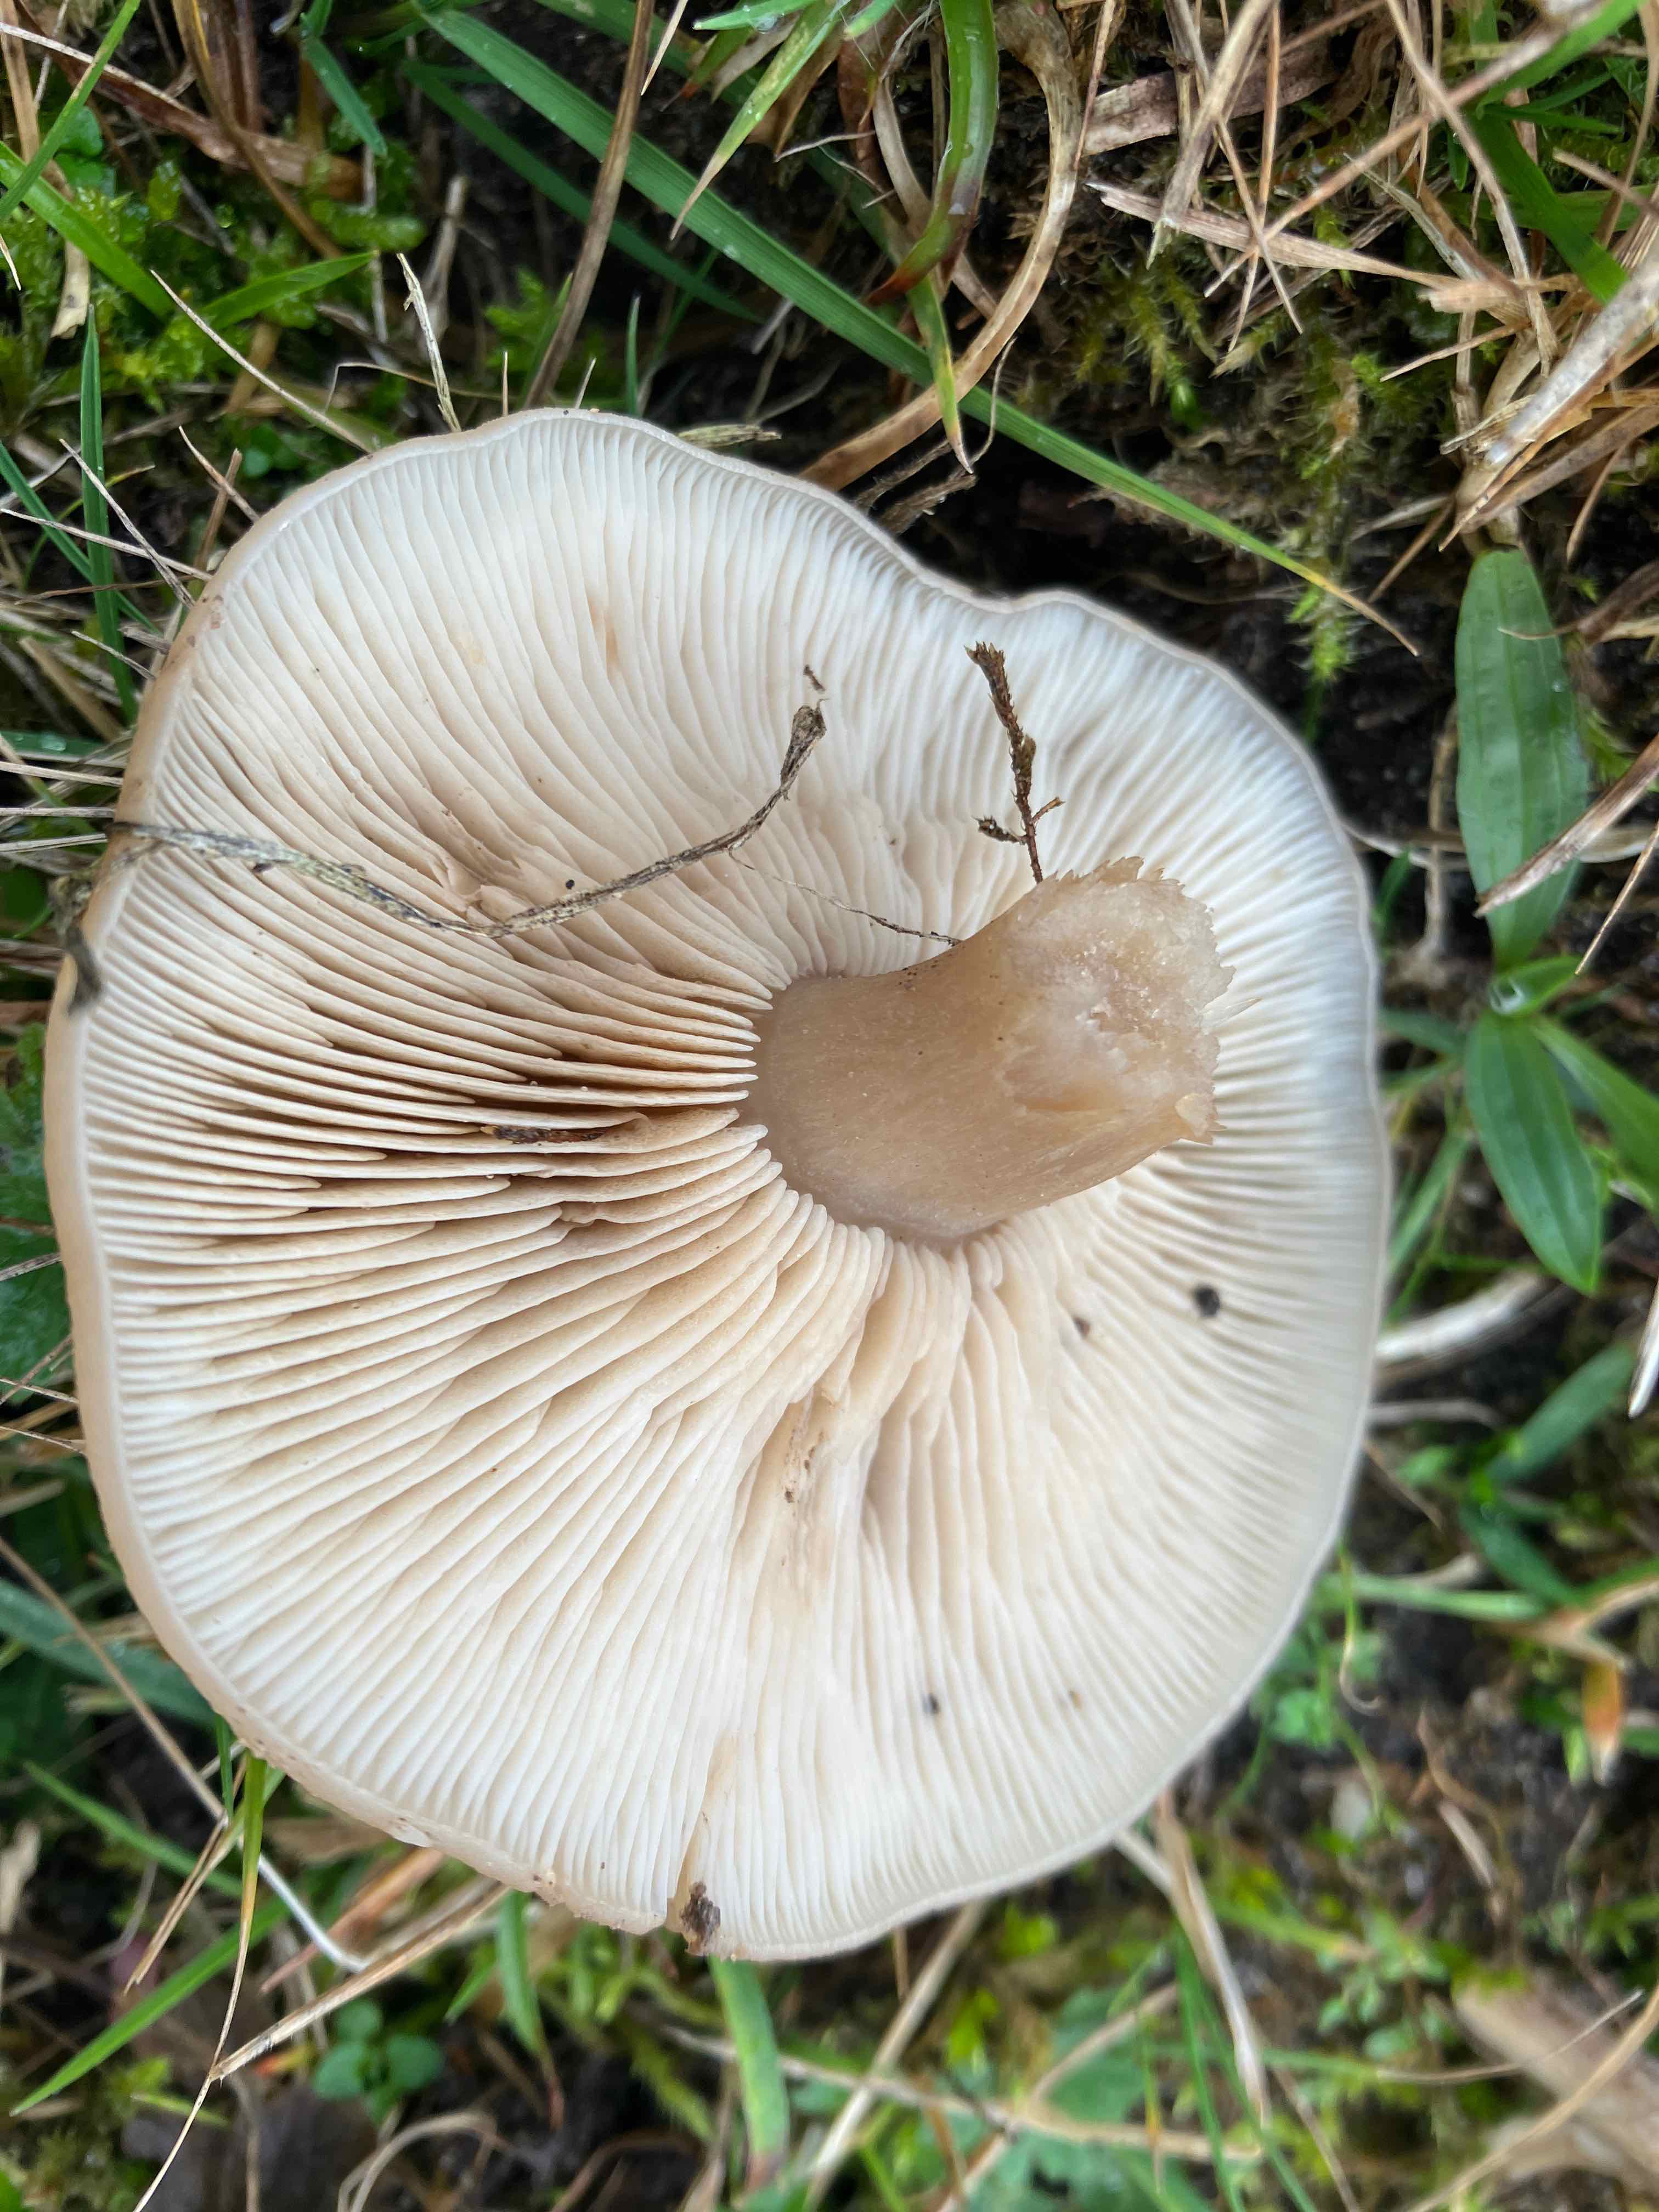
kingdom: Fungi
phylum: Basidiomycota
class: Agaricomycetes
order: Agaricales
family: Tricholomataceae
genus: Lepista
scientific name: Lepista panaeolus
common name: marmoreret hekseringshat
